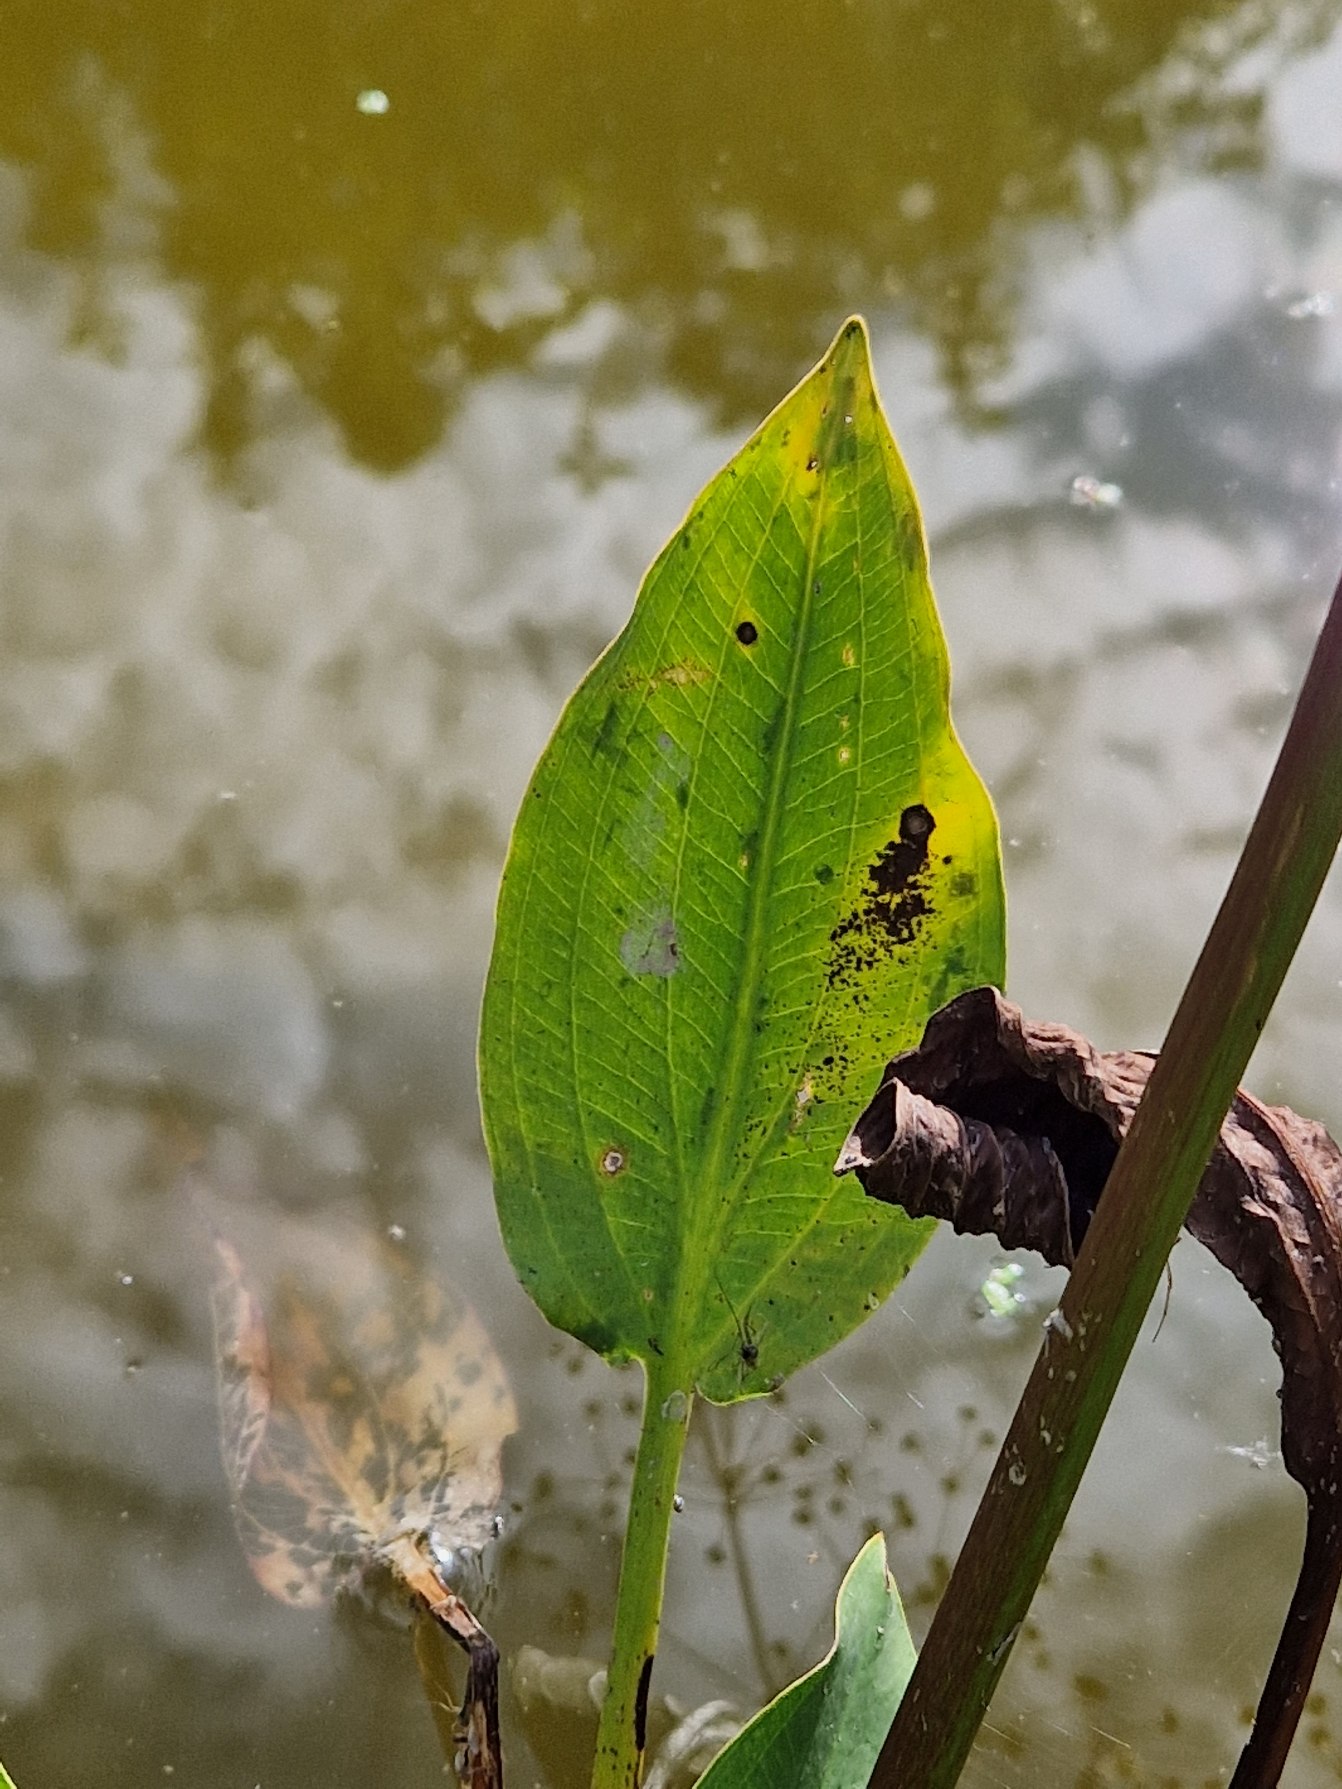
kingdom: Plantae
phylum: Tracheophyta
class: Liliopsida
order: Alismatales
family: Alismataceae
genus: Alisma
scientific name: Alisma plantago-aquatica
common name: Vejbred-skeblad
